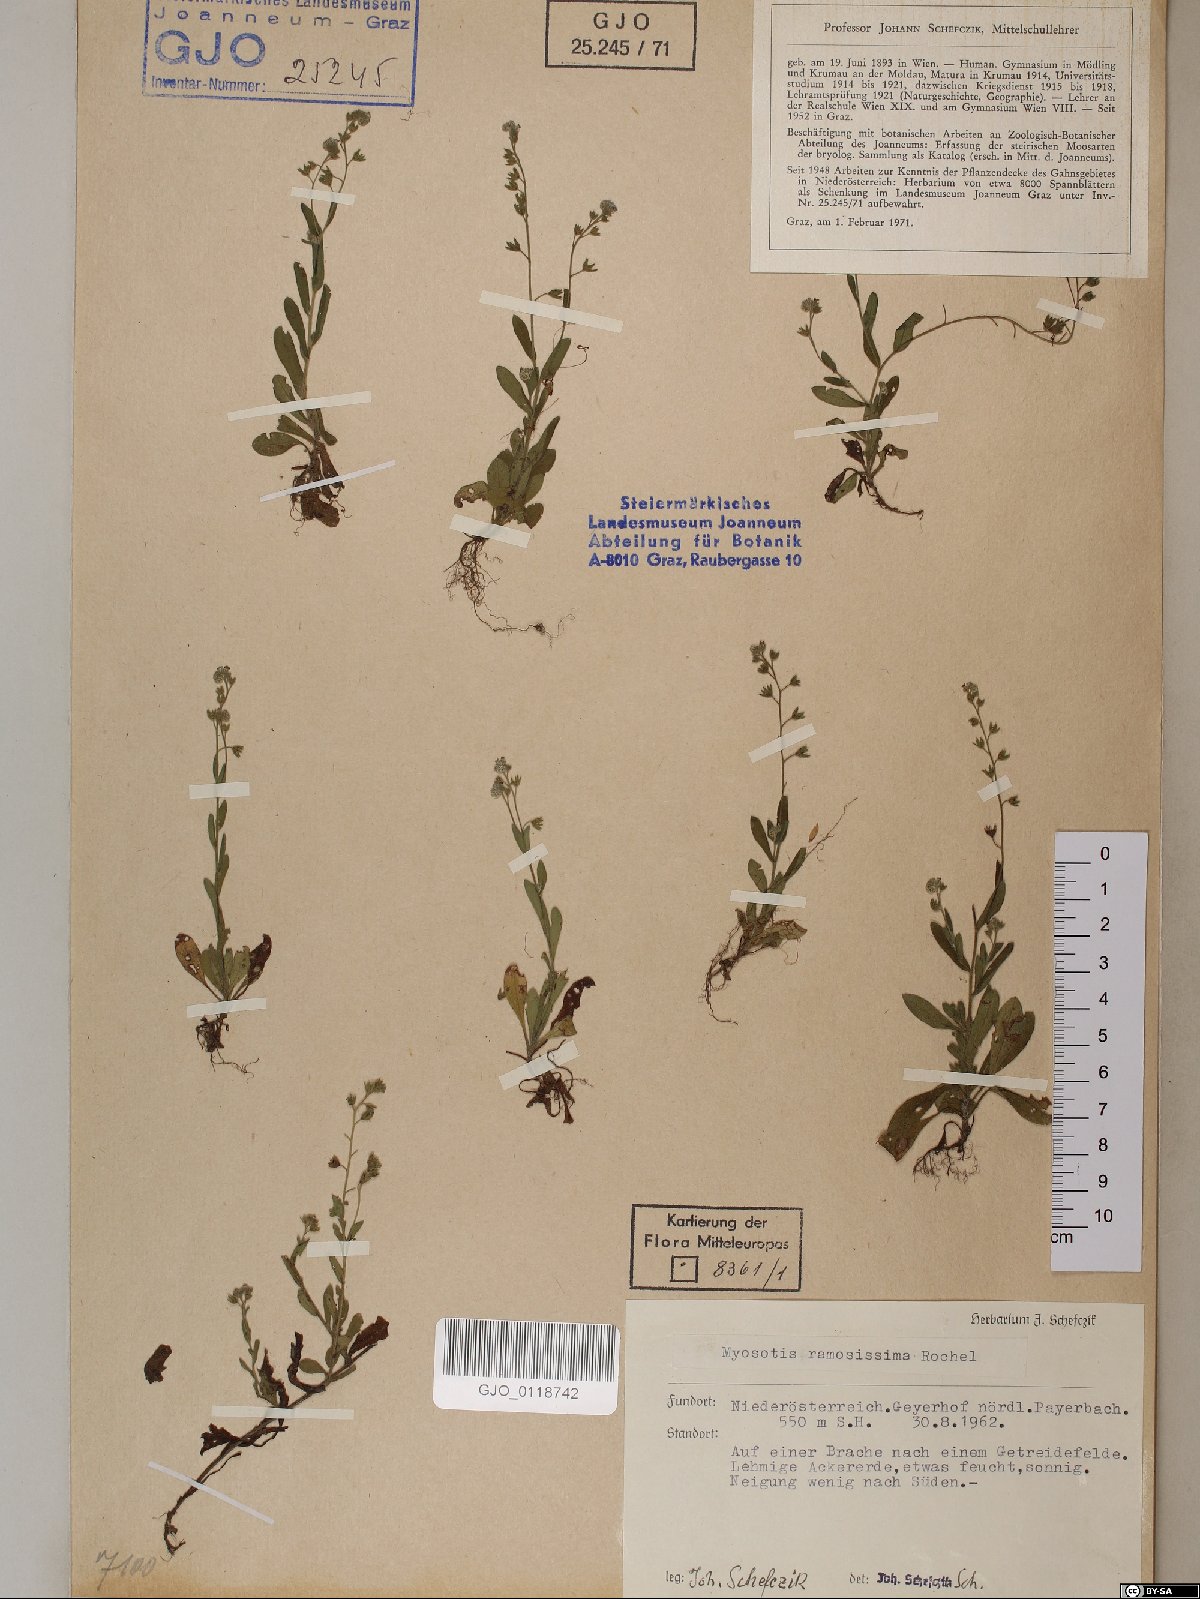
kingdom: Plantae
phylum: Tracheophyta
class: Magnoliopsida
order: Boraginales
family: Boraginaceae
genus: Myosotis
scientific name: Myosotis ramosissima
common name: Early forget-me-not
